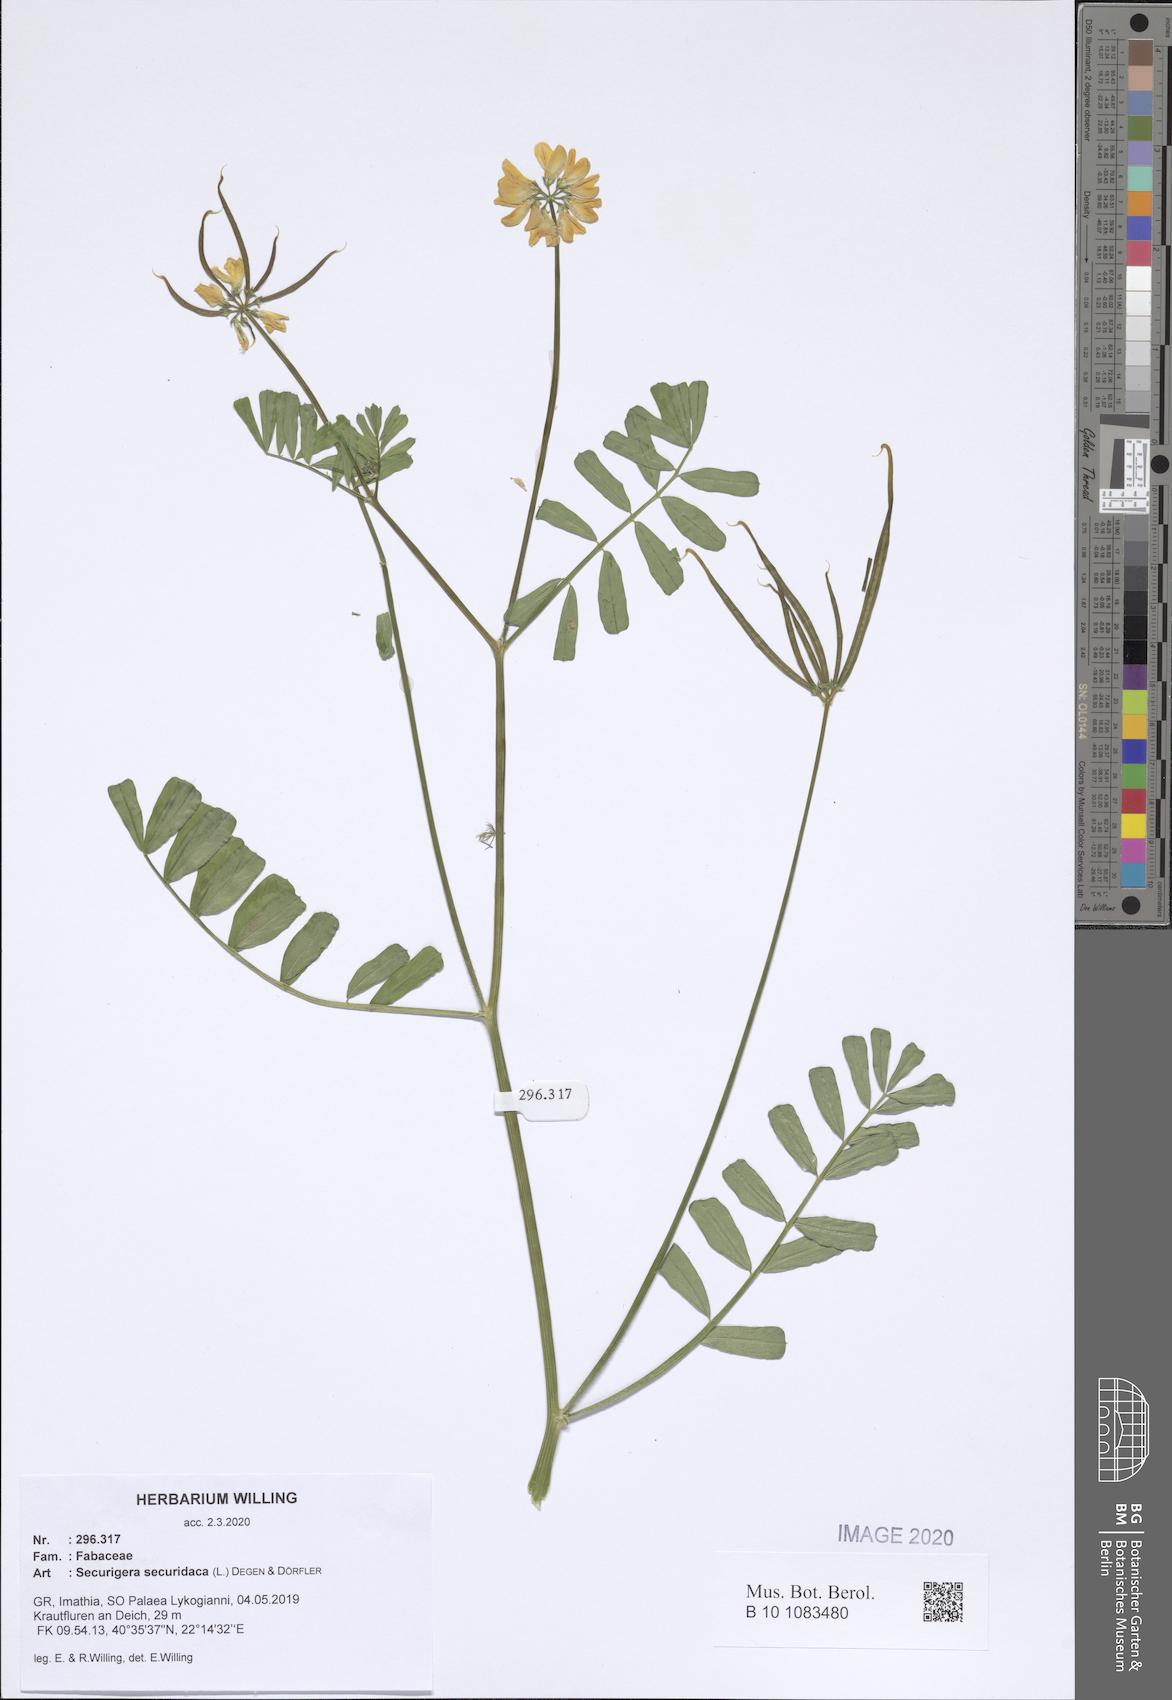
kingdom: Plantae
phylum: Tracheophyta
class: Magnoliopsida
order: Fabales
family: Fabaceae
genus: Coronilla
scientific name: Coronilla securidaca
